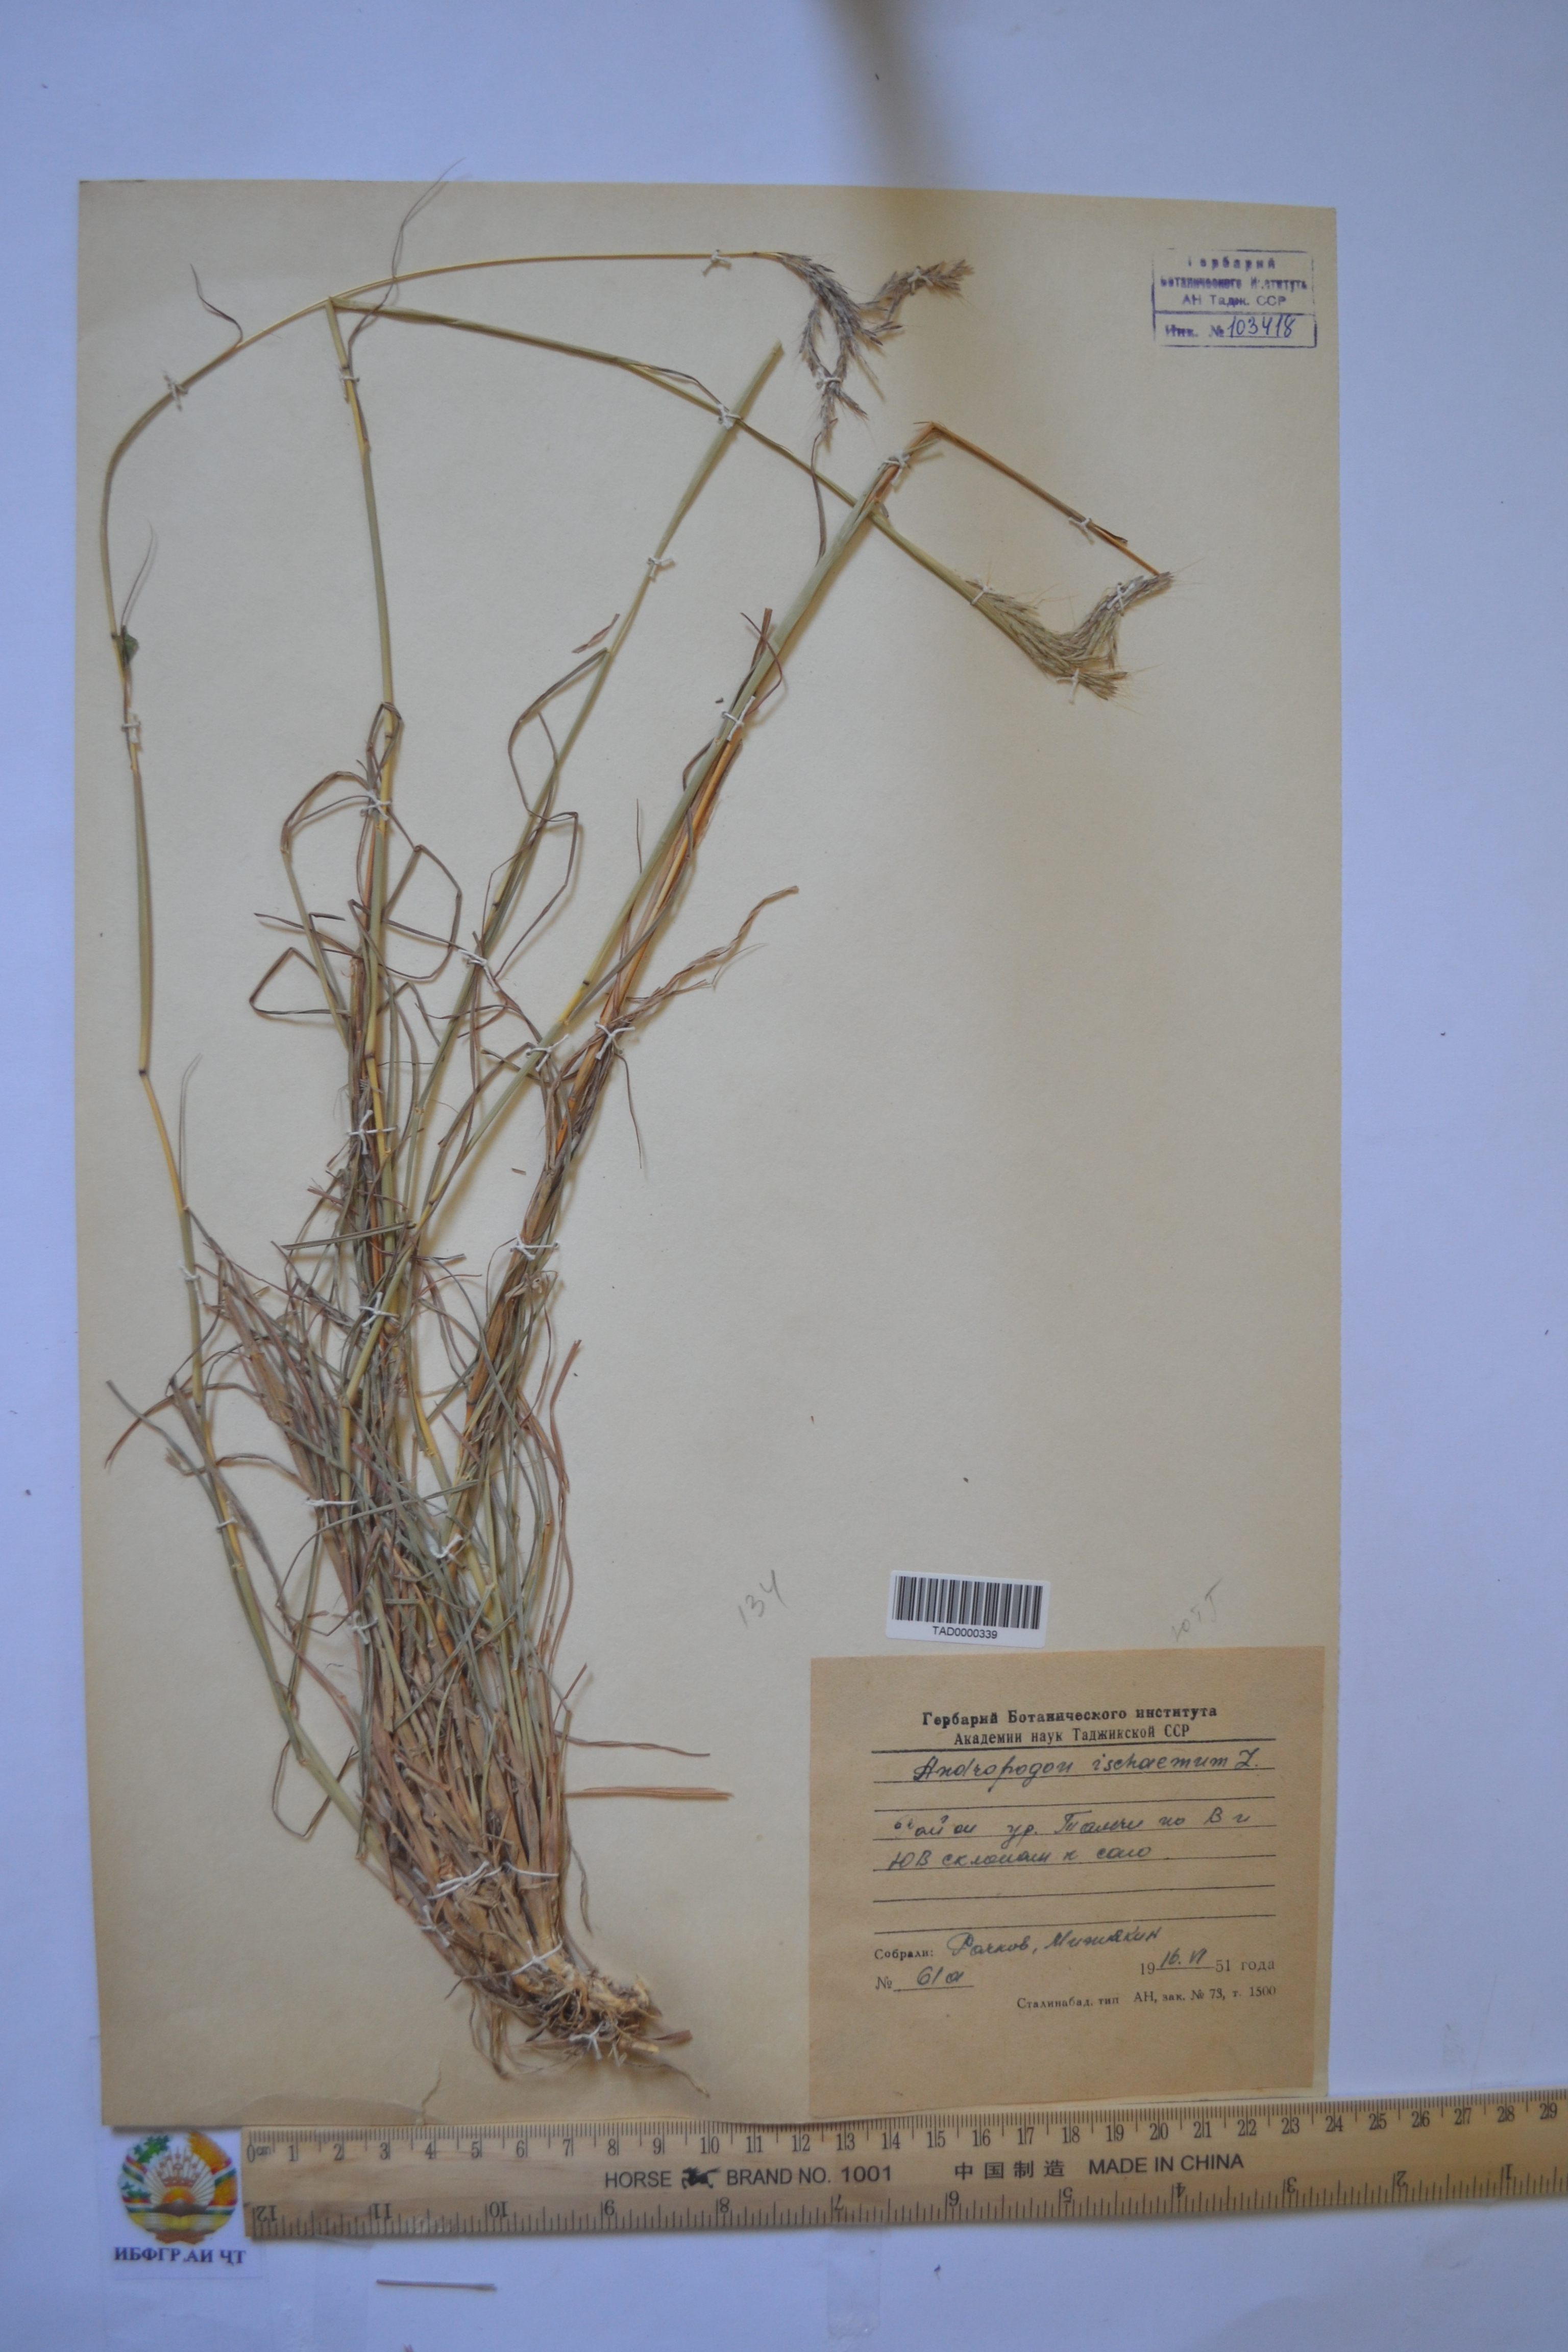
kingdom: Plantae
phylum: Tracheophyta
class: Liliopsida
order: Poales
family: Poaceae
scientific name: Poaceae
